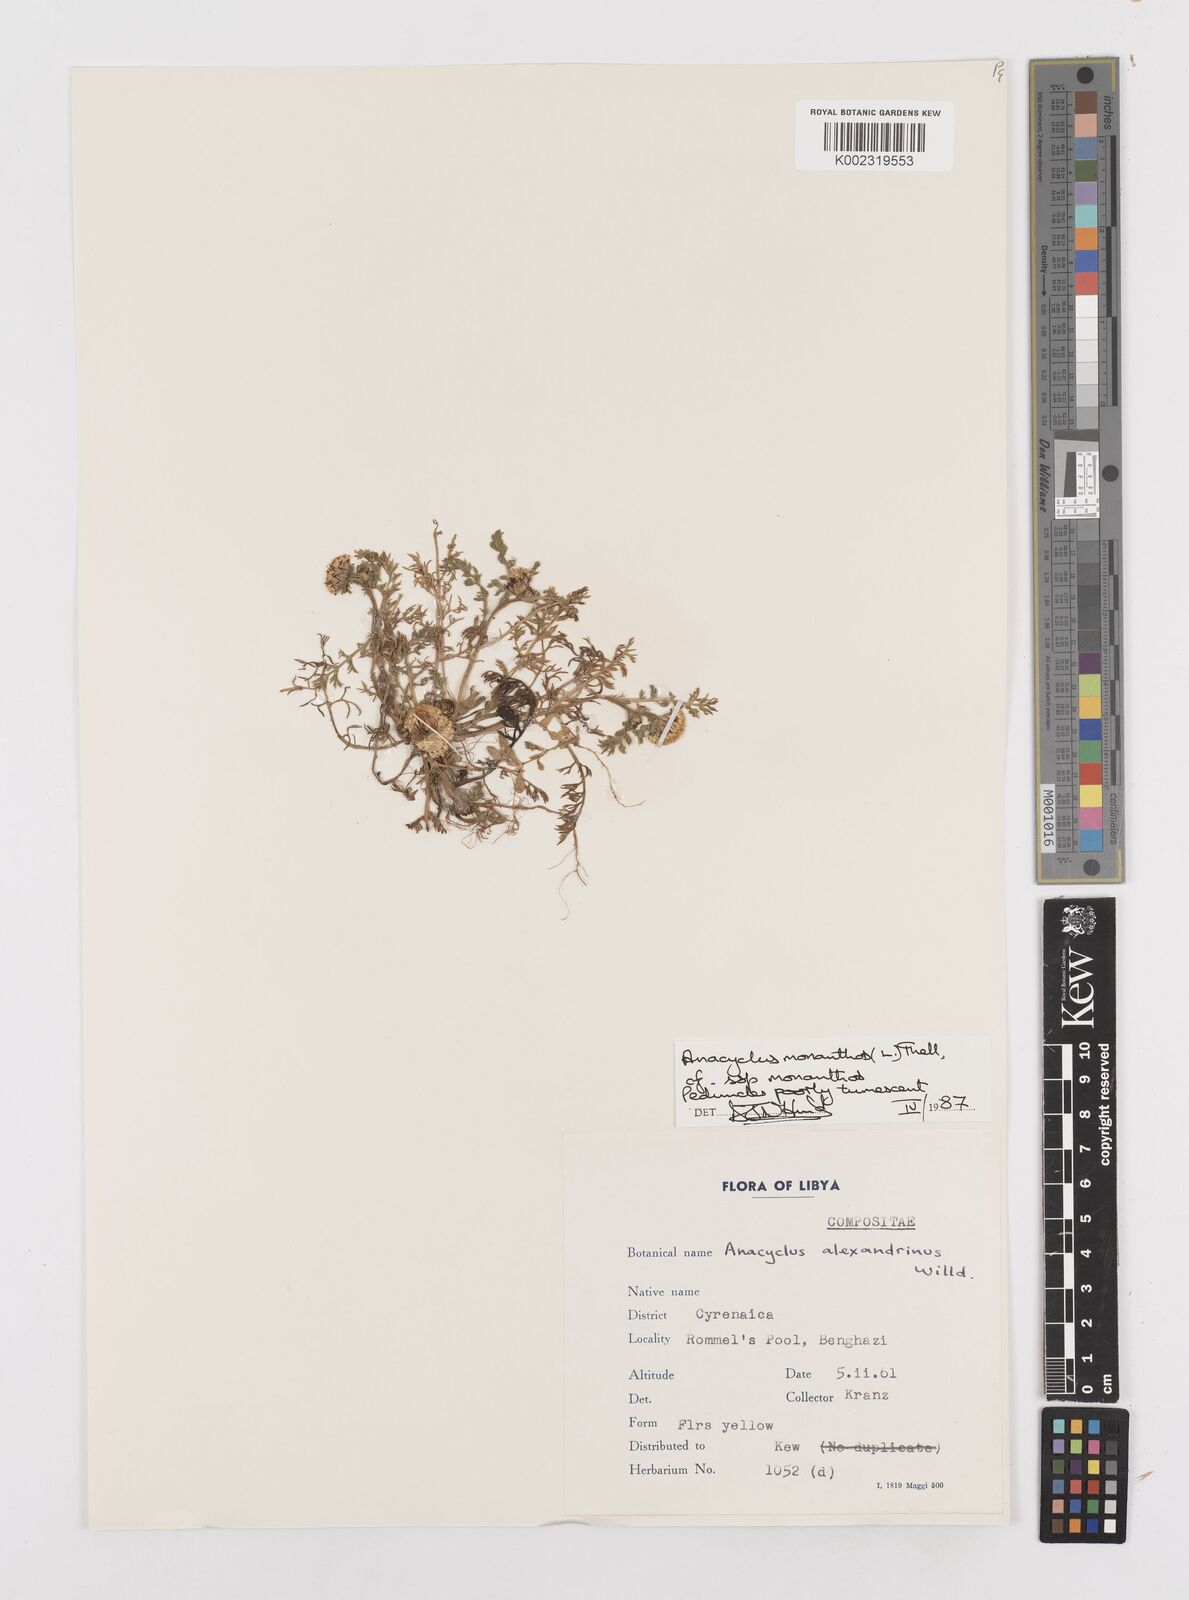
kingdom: Plantae
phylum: Tracheophyta
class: Magnoliopsida
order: Asterales
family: Asteraceae
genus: Anacyclus
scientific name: Anacyclus monanthos
